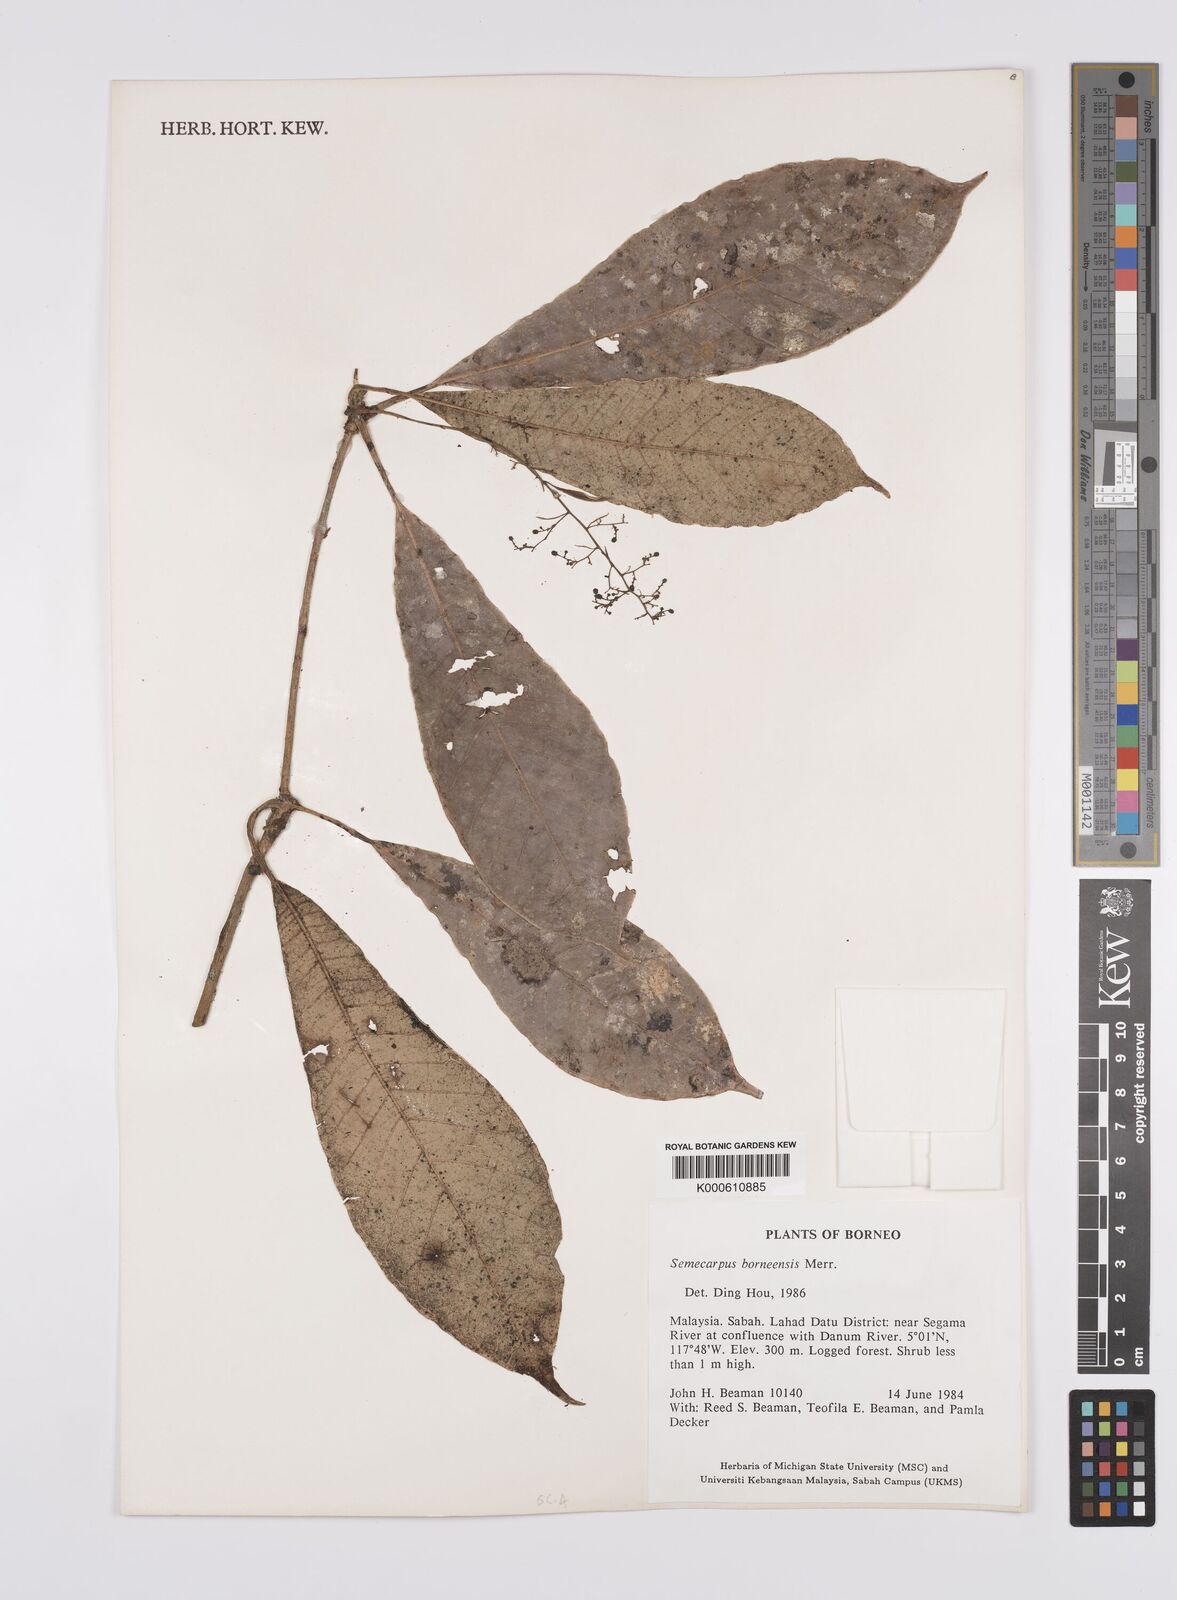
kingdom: Plantae
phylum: Tracheophyta
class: Magnoliopsida
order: Sapindales
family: Anacardiaceae
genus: Semecarpus
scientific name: Semecarpus borneensis
